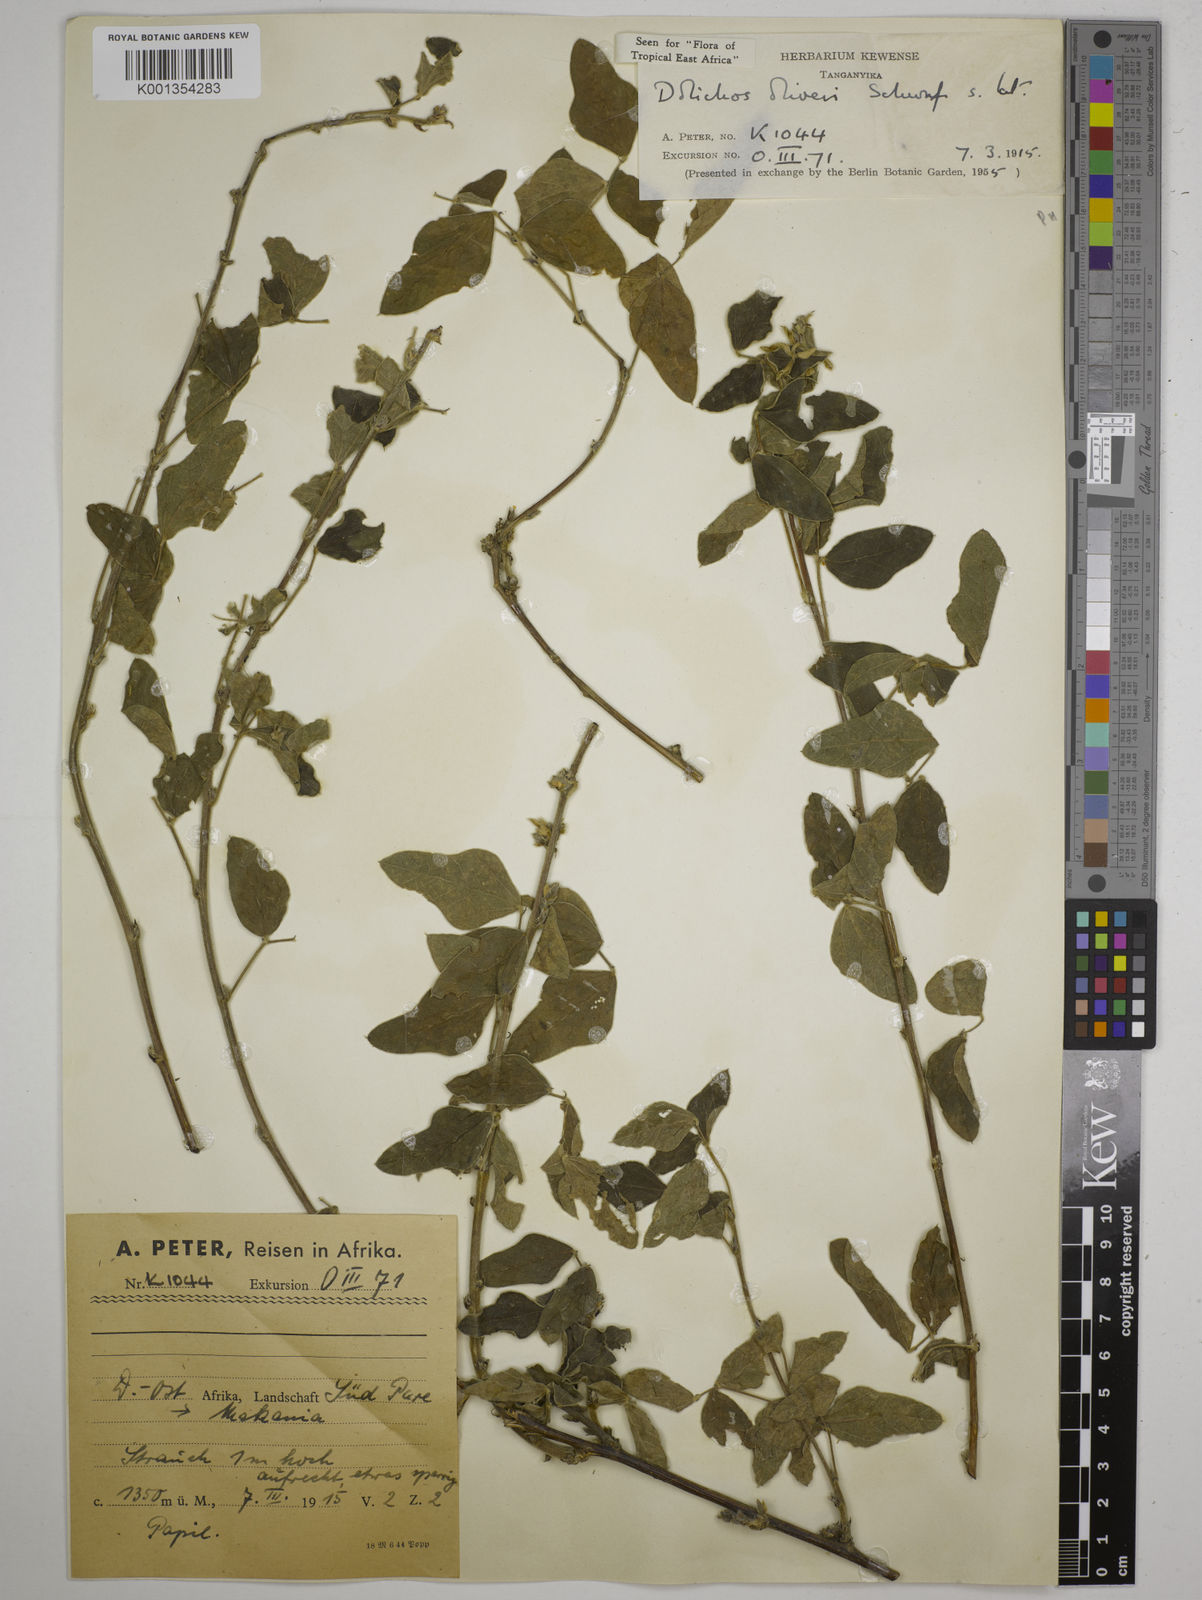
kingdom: Plantae
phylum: Tracheophyta
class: Magnoliopsida
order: Fabales
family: Fabaceae
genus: Dolichos
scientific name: Dolichos oliveri
